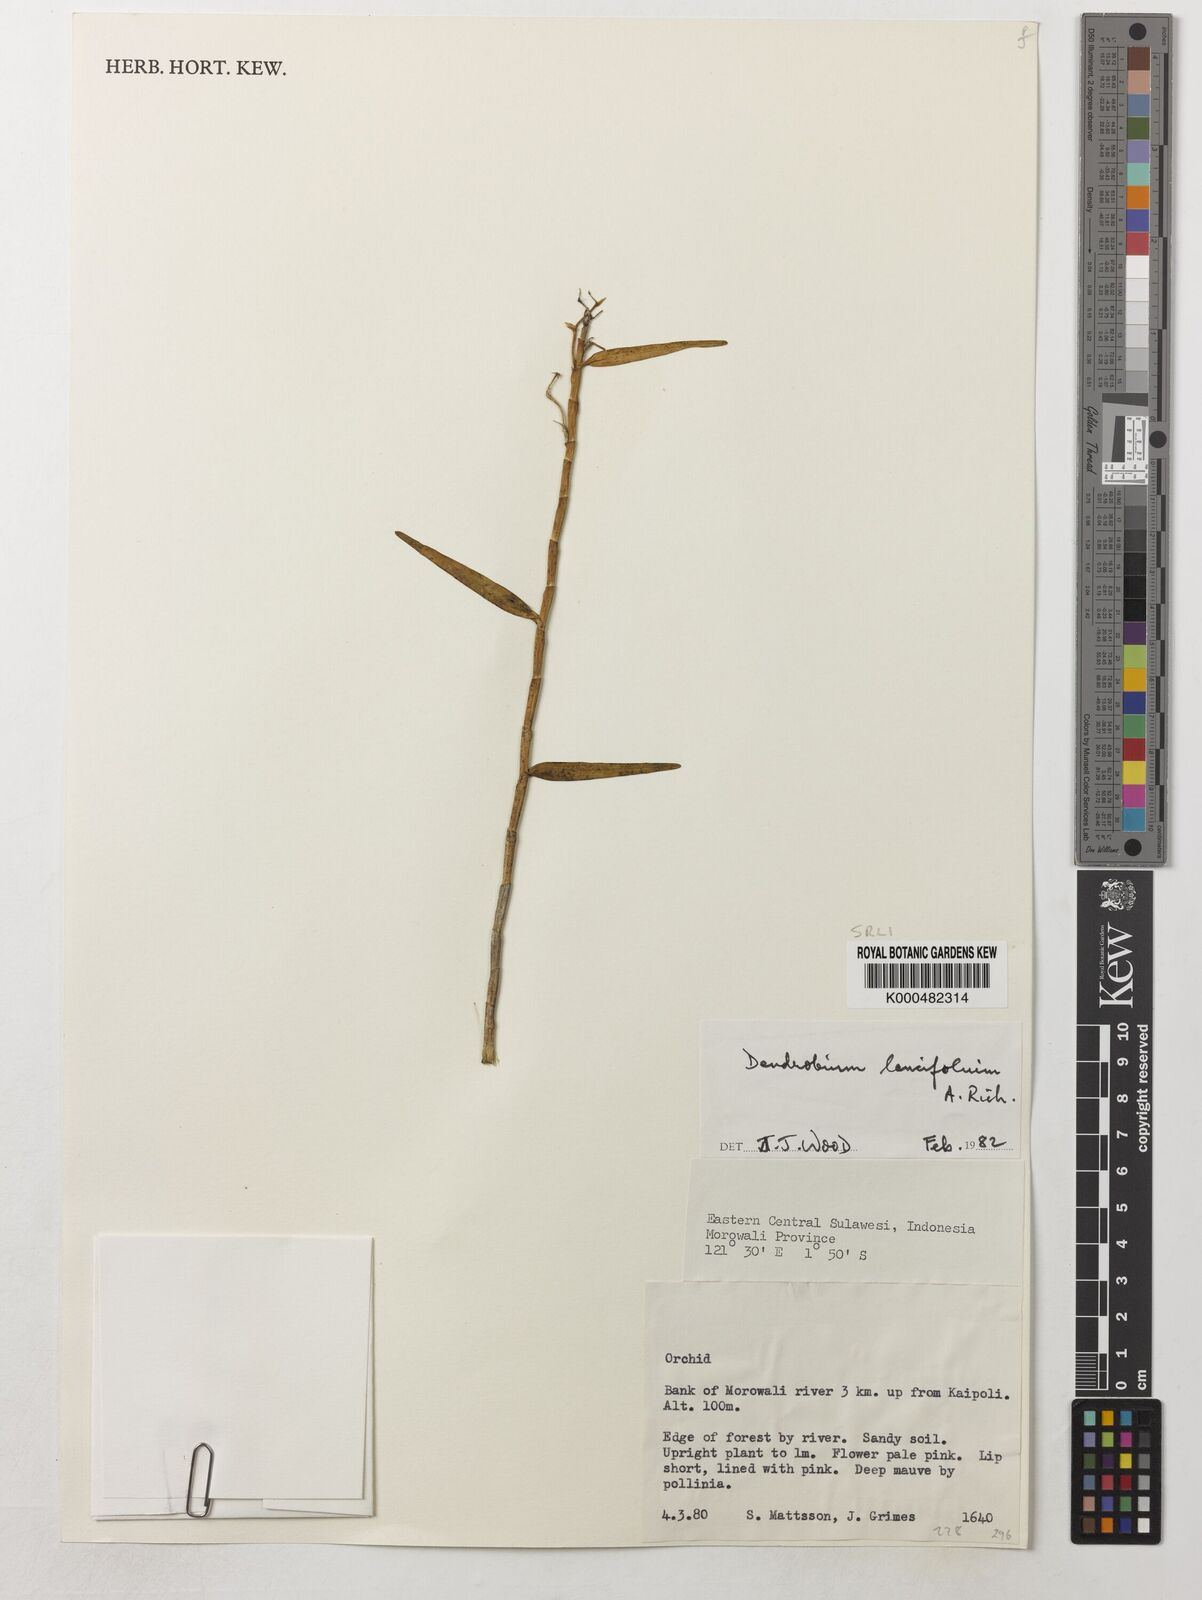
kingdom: Plantae
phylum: Tracheophyta
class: Liliopsida
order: Asparagales
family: Orchidaceae
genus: Dendrobium
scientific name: Dendrobium lanceolatum
